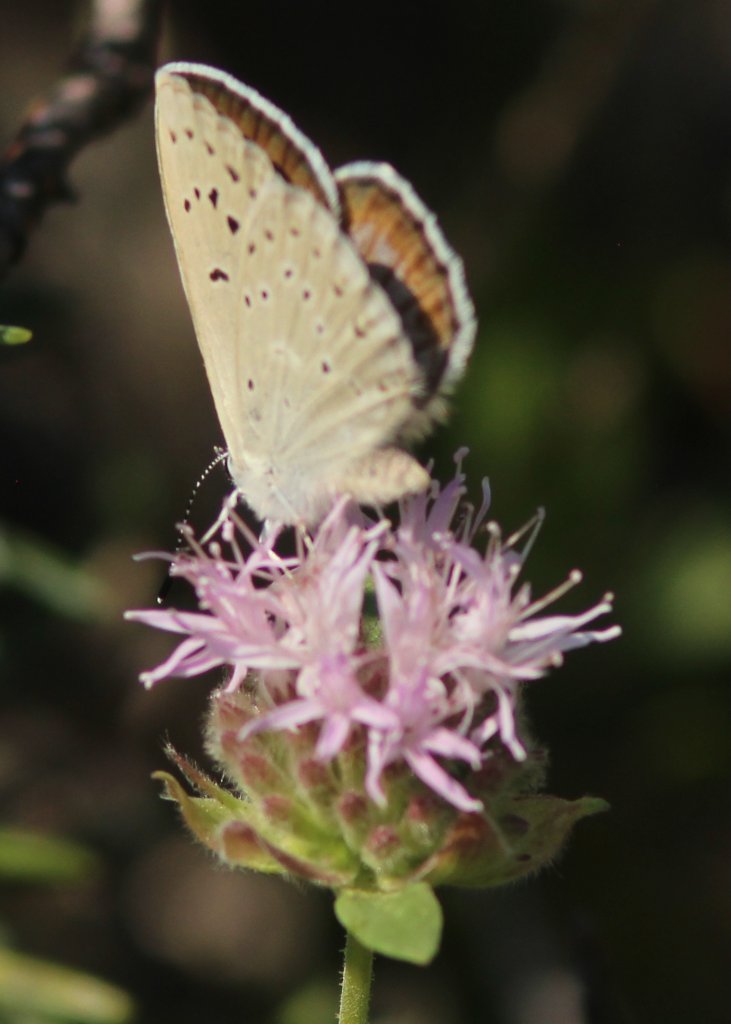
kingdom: Animalia
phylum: Arthropoda
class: Insecta
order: Lepidoptera
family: Lycaenidae
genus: Plebejus
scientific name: Plebejus saepiolus
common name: Greenish Blue
